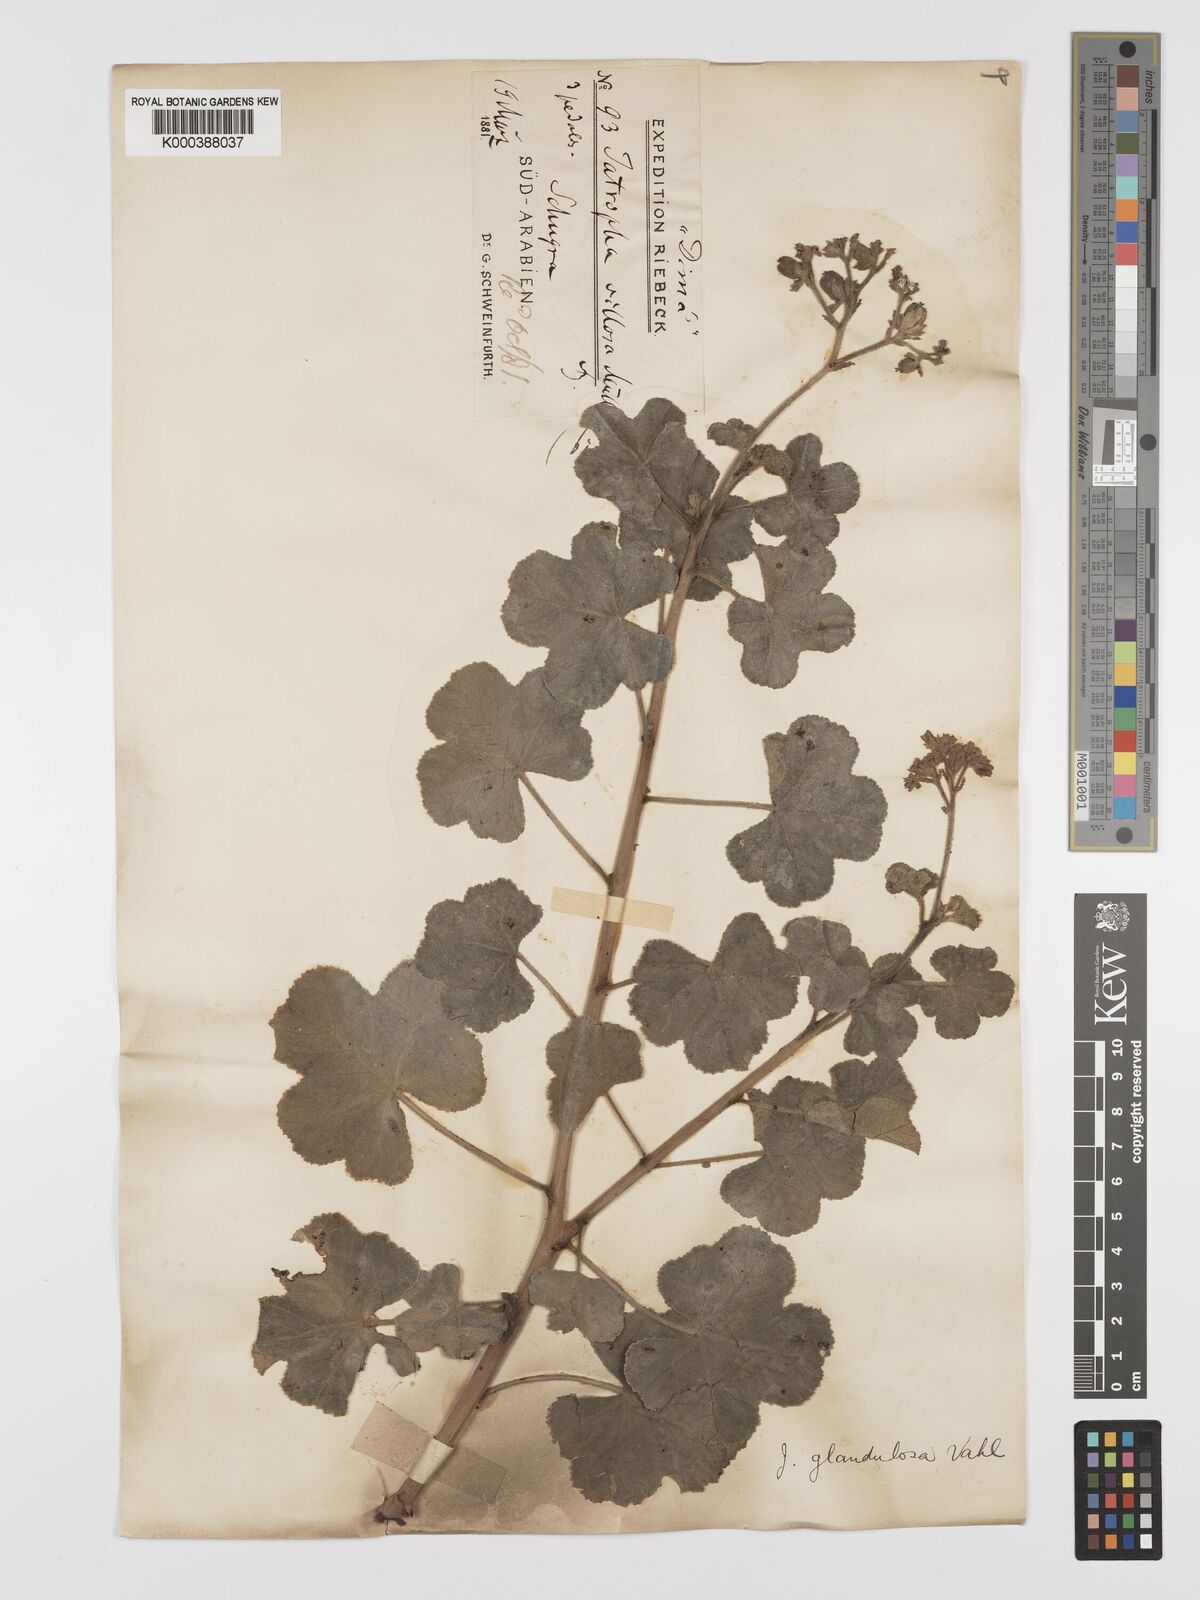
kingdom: Plantae
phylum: Tracheophyta
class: Magnoliopsida
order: Malpighiales
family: Euphorbiaceae
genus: Jatropha
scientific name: Jatropha pelargoniifolia
